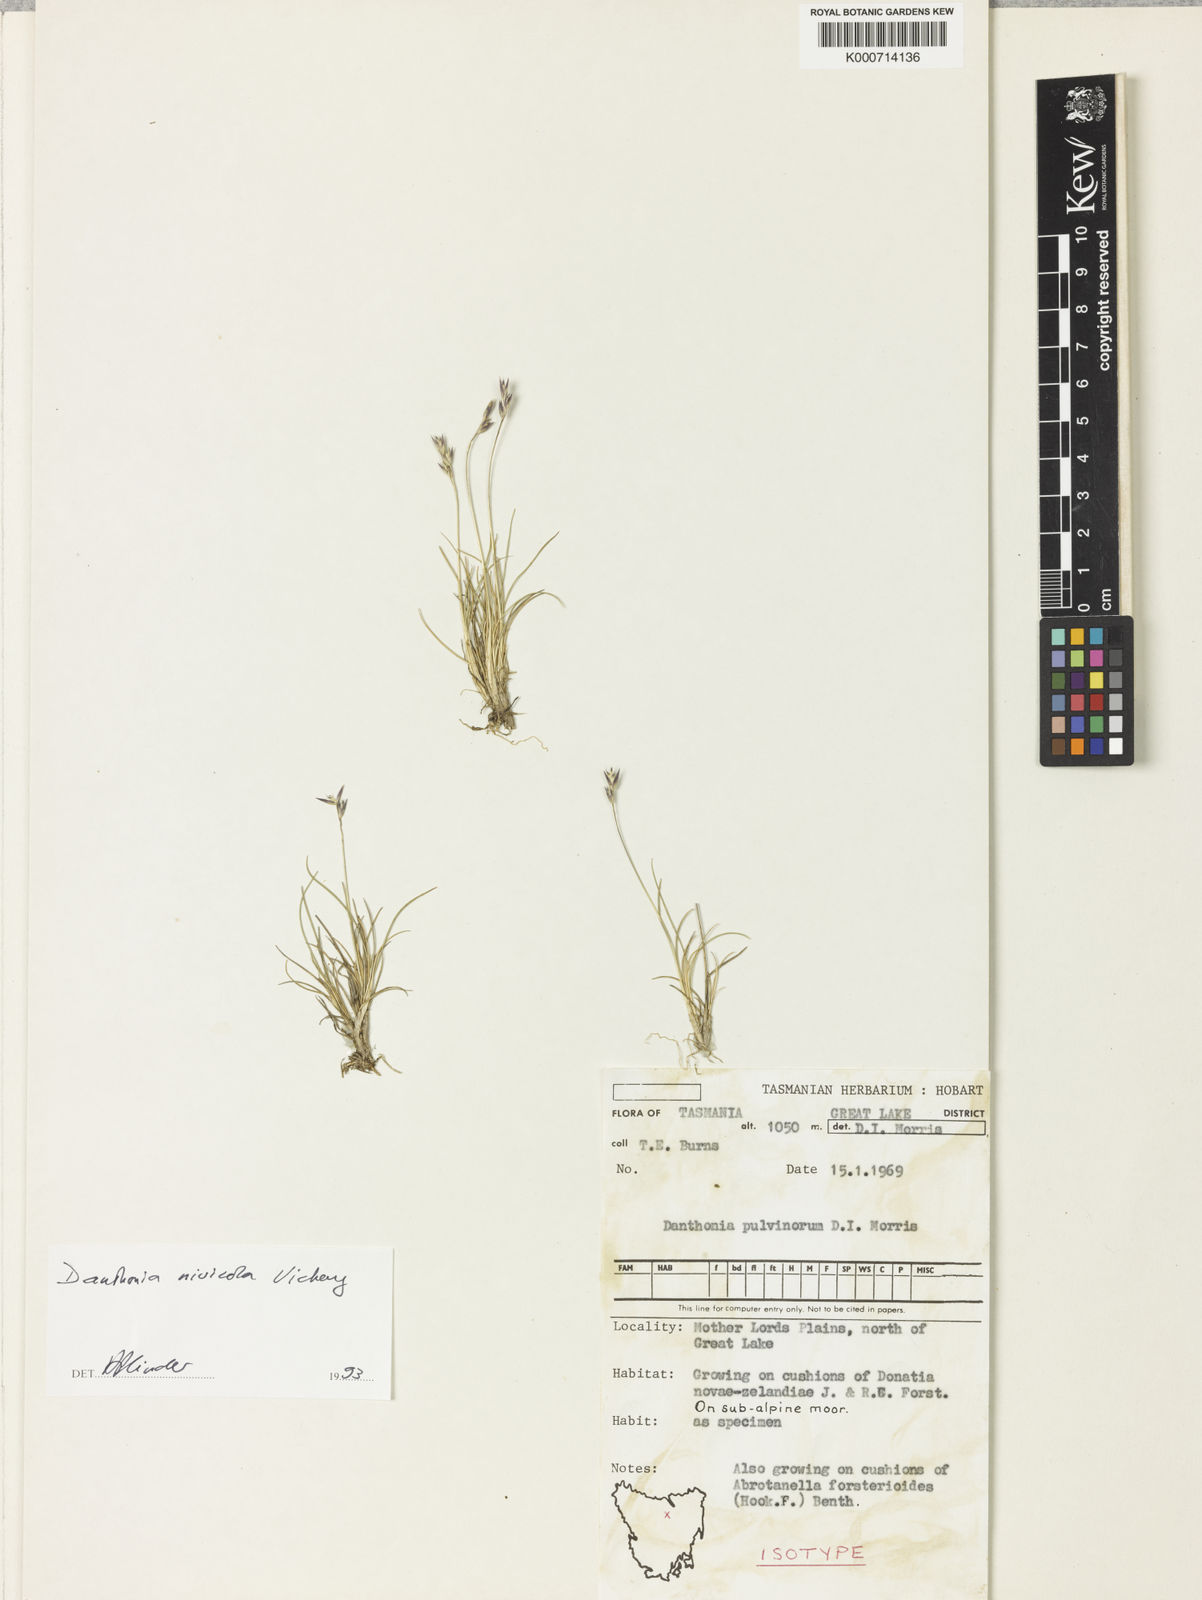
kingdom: Plantae
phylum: Tracheophyta
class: Liliopsida
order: Poales
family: Poaceae
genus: Rytidosperma
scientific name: Rytidosperma nivicola
